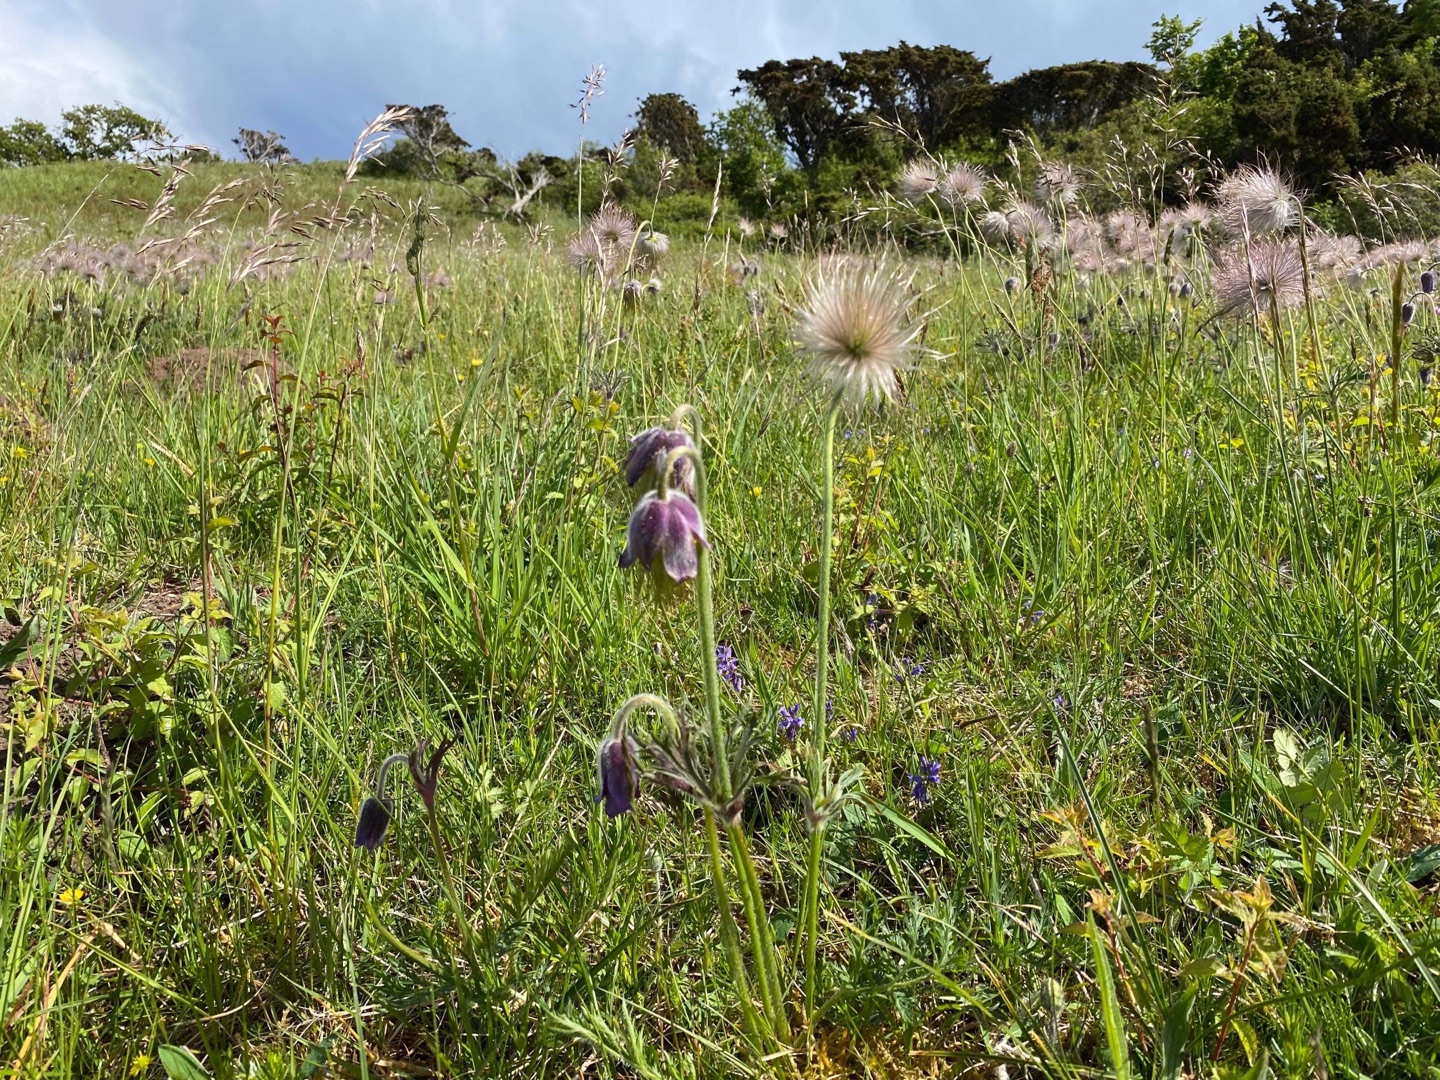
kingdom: Plantae
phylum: Tracheophyta
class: Magnoliopsida
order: Ranunculales
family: Ranunculaceae
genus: Pulsatilla
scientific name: Pulsatilla pratensis
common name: Nikkende kobjælde
